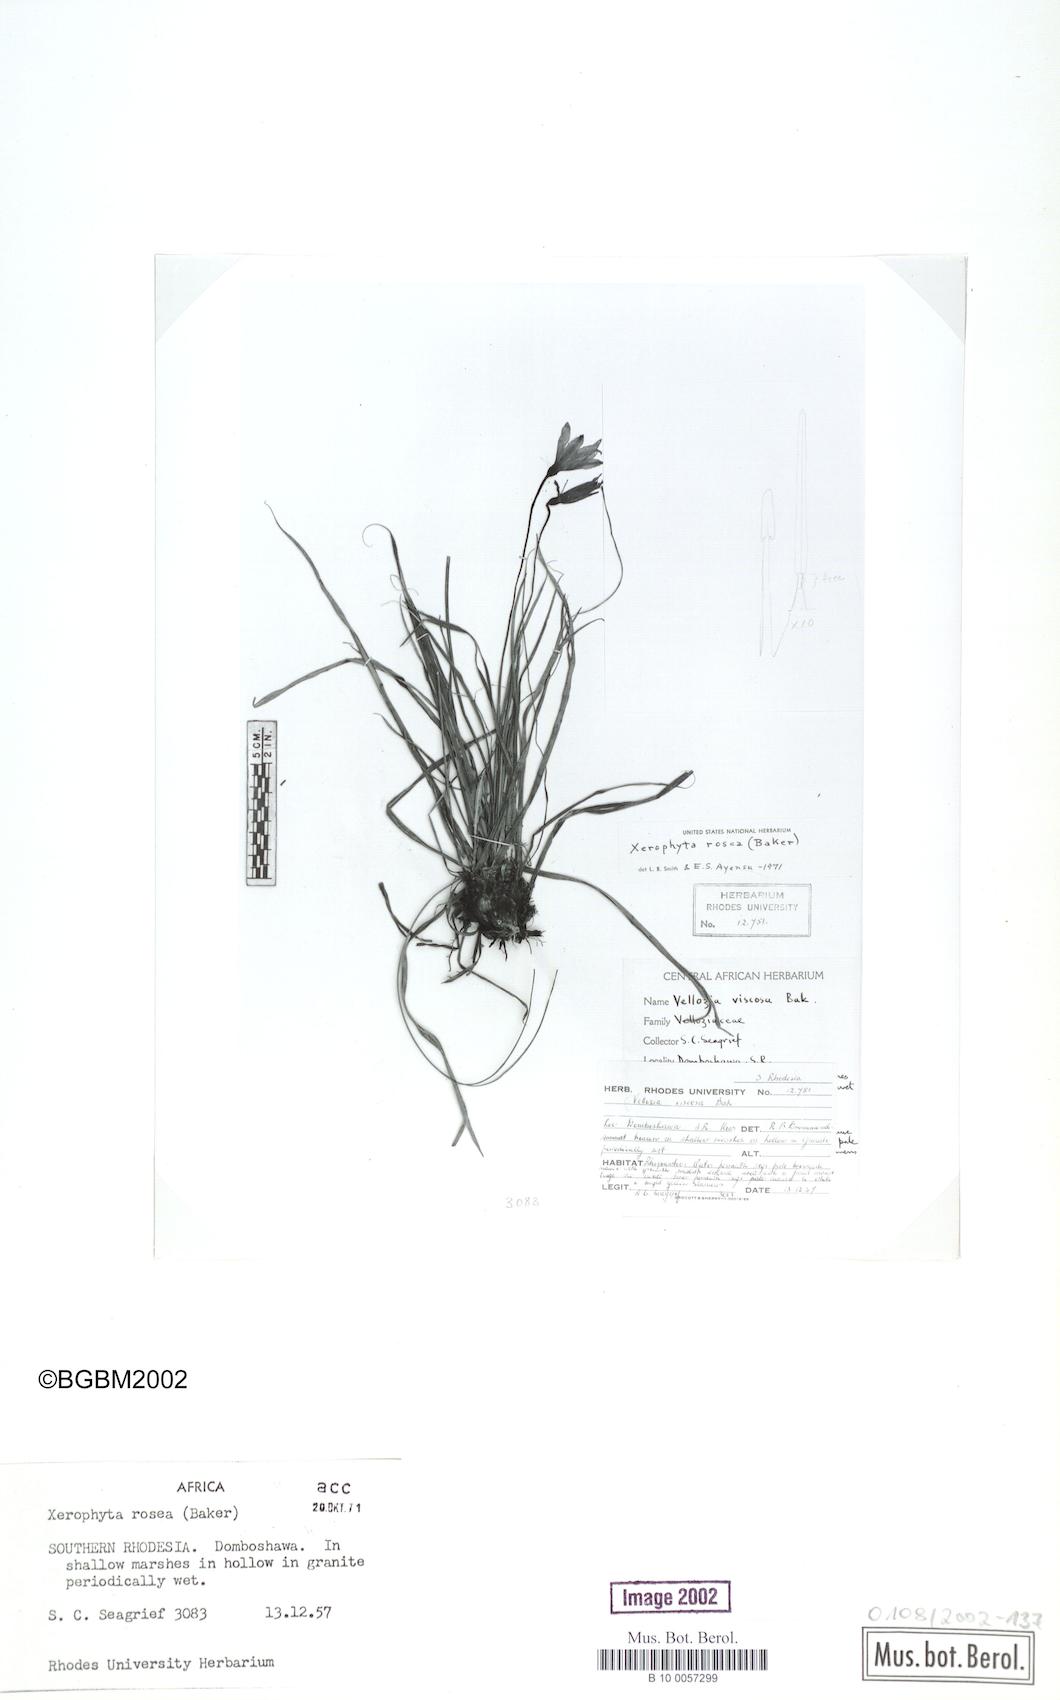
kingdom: Plantae
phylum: Tracheophyta
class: Liliopsida
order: Pandanales
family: Velloziaceae
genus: Xerophyta
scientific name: Xerophyta rosea
